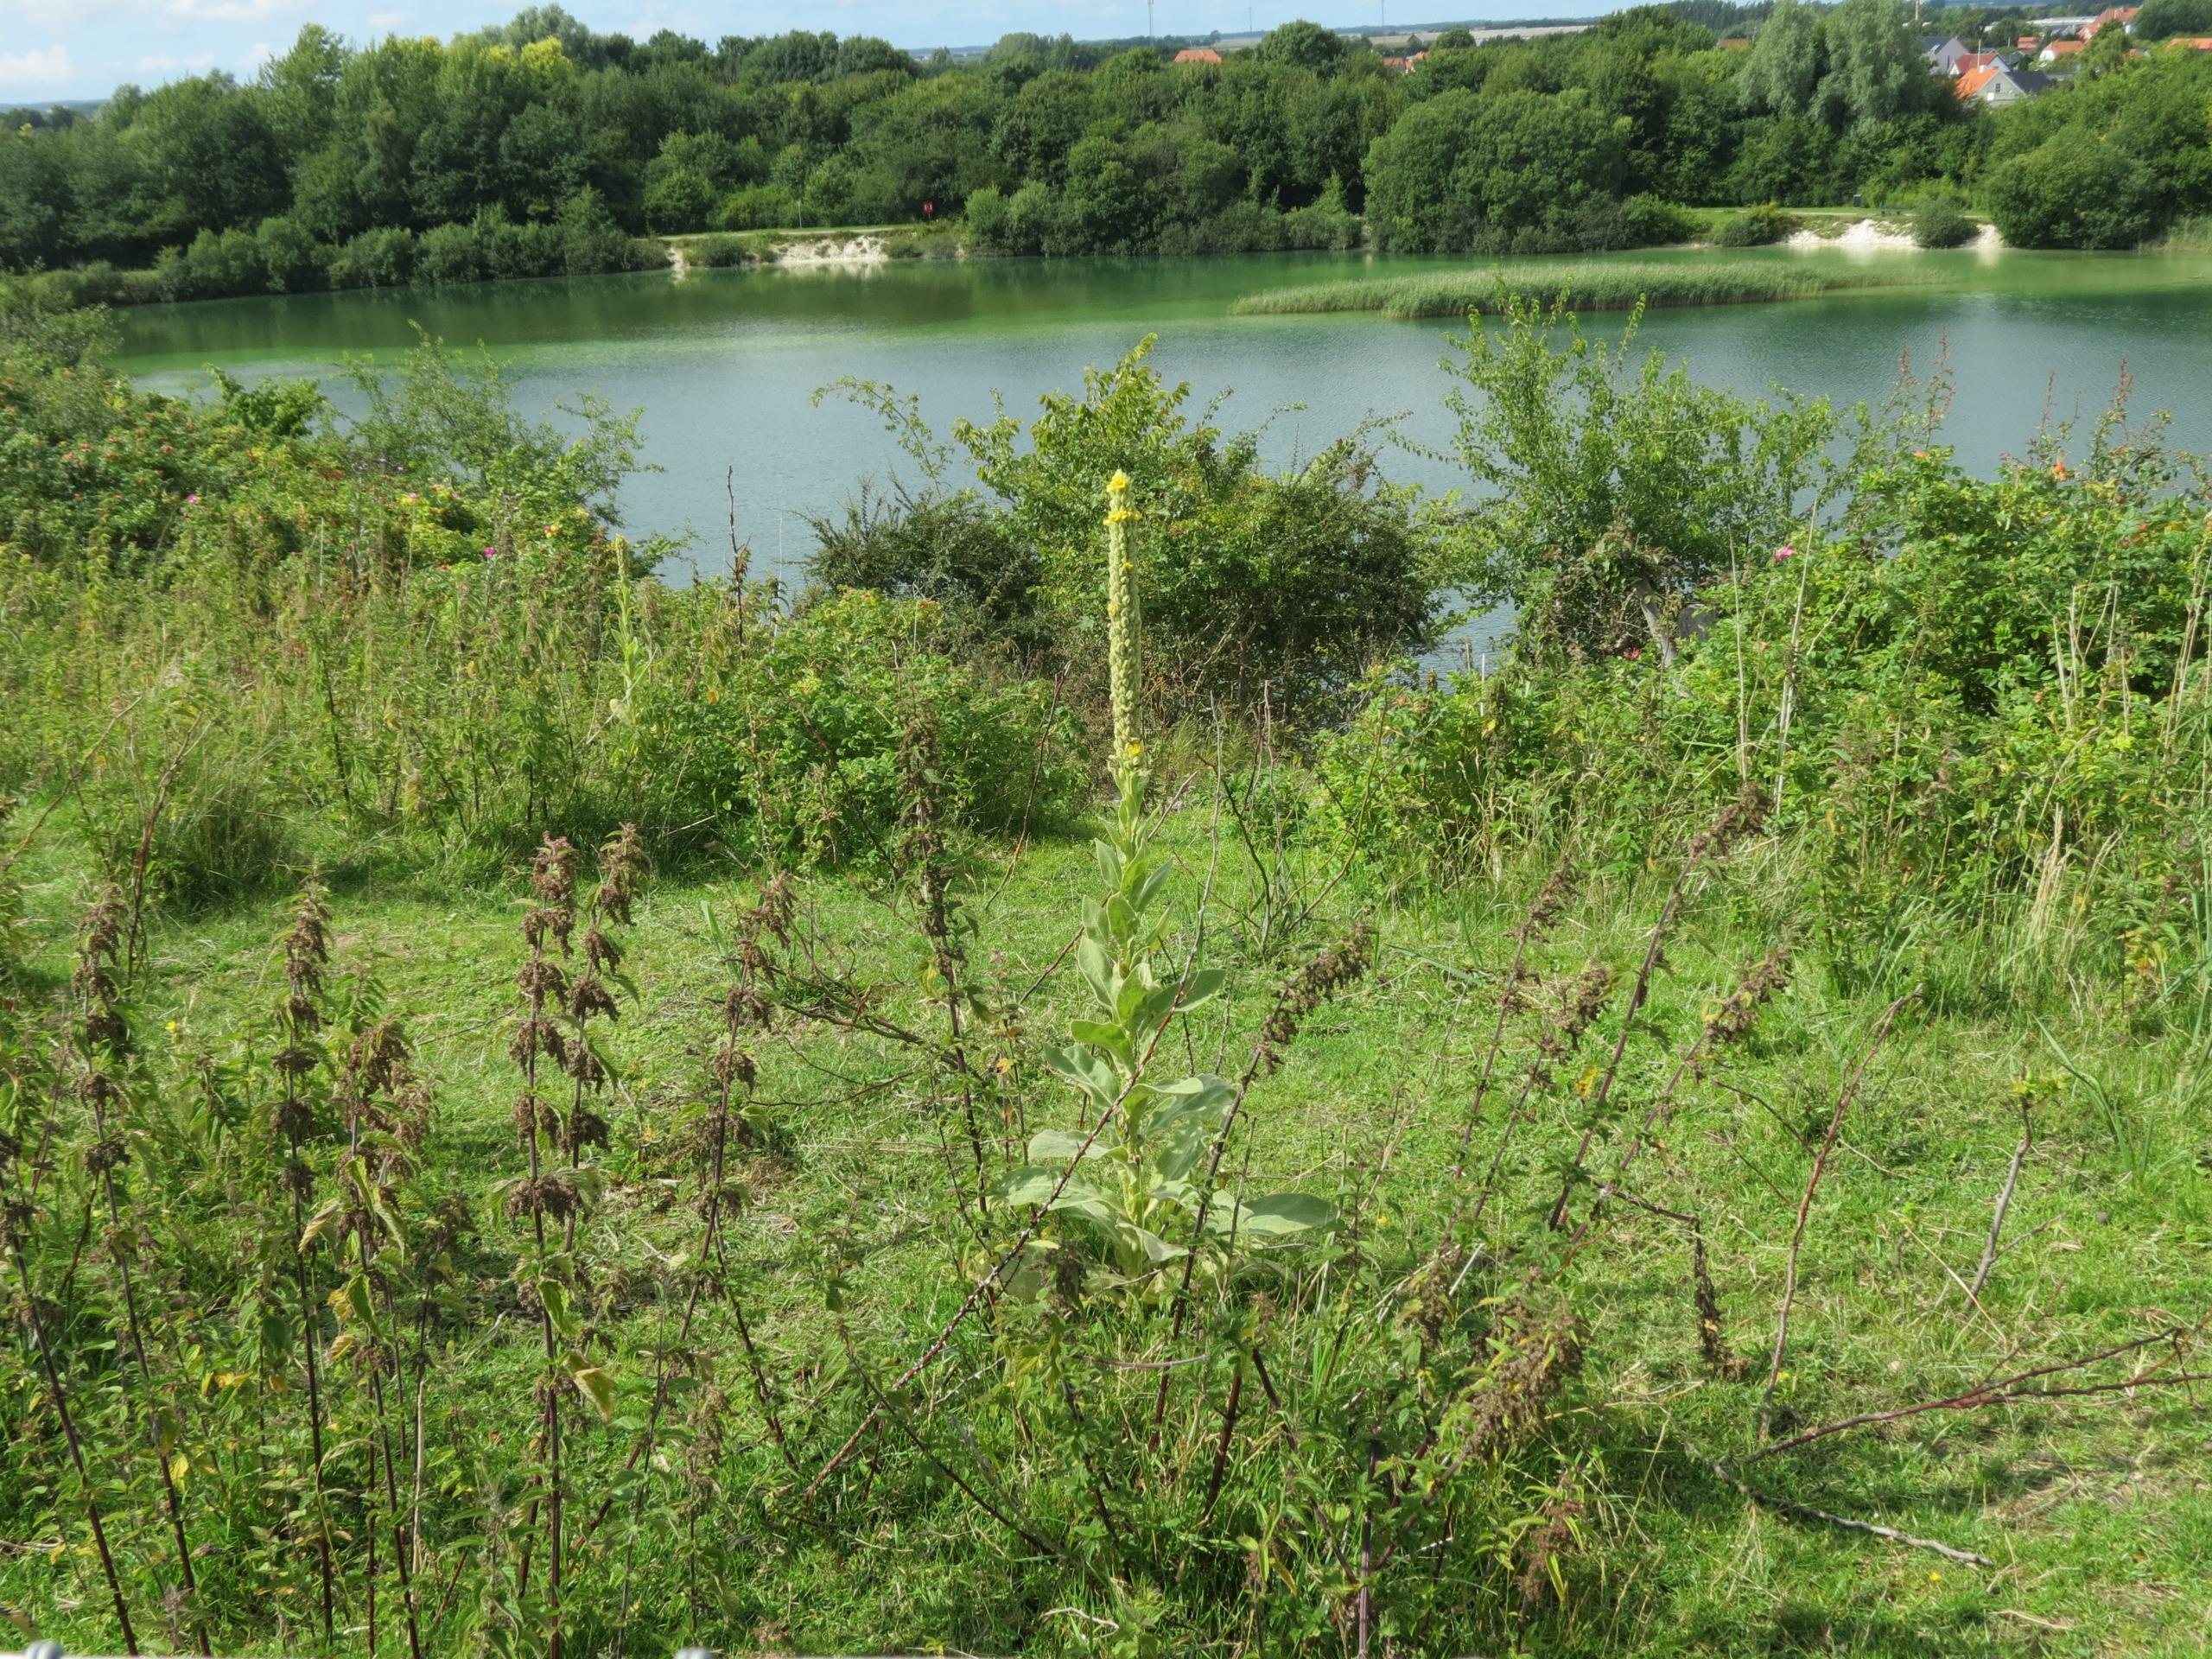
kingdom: Plantae
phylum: Tracheophyta
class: Magnoliopsida
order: Lamiales
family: Scrophulariaceae
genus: Verbascum
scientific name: Verbascum thapsus
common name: Filtbladet kongelys
